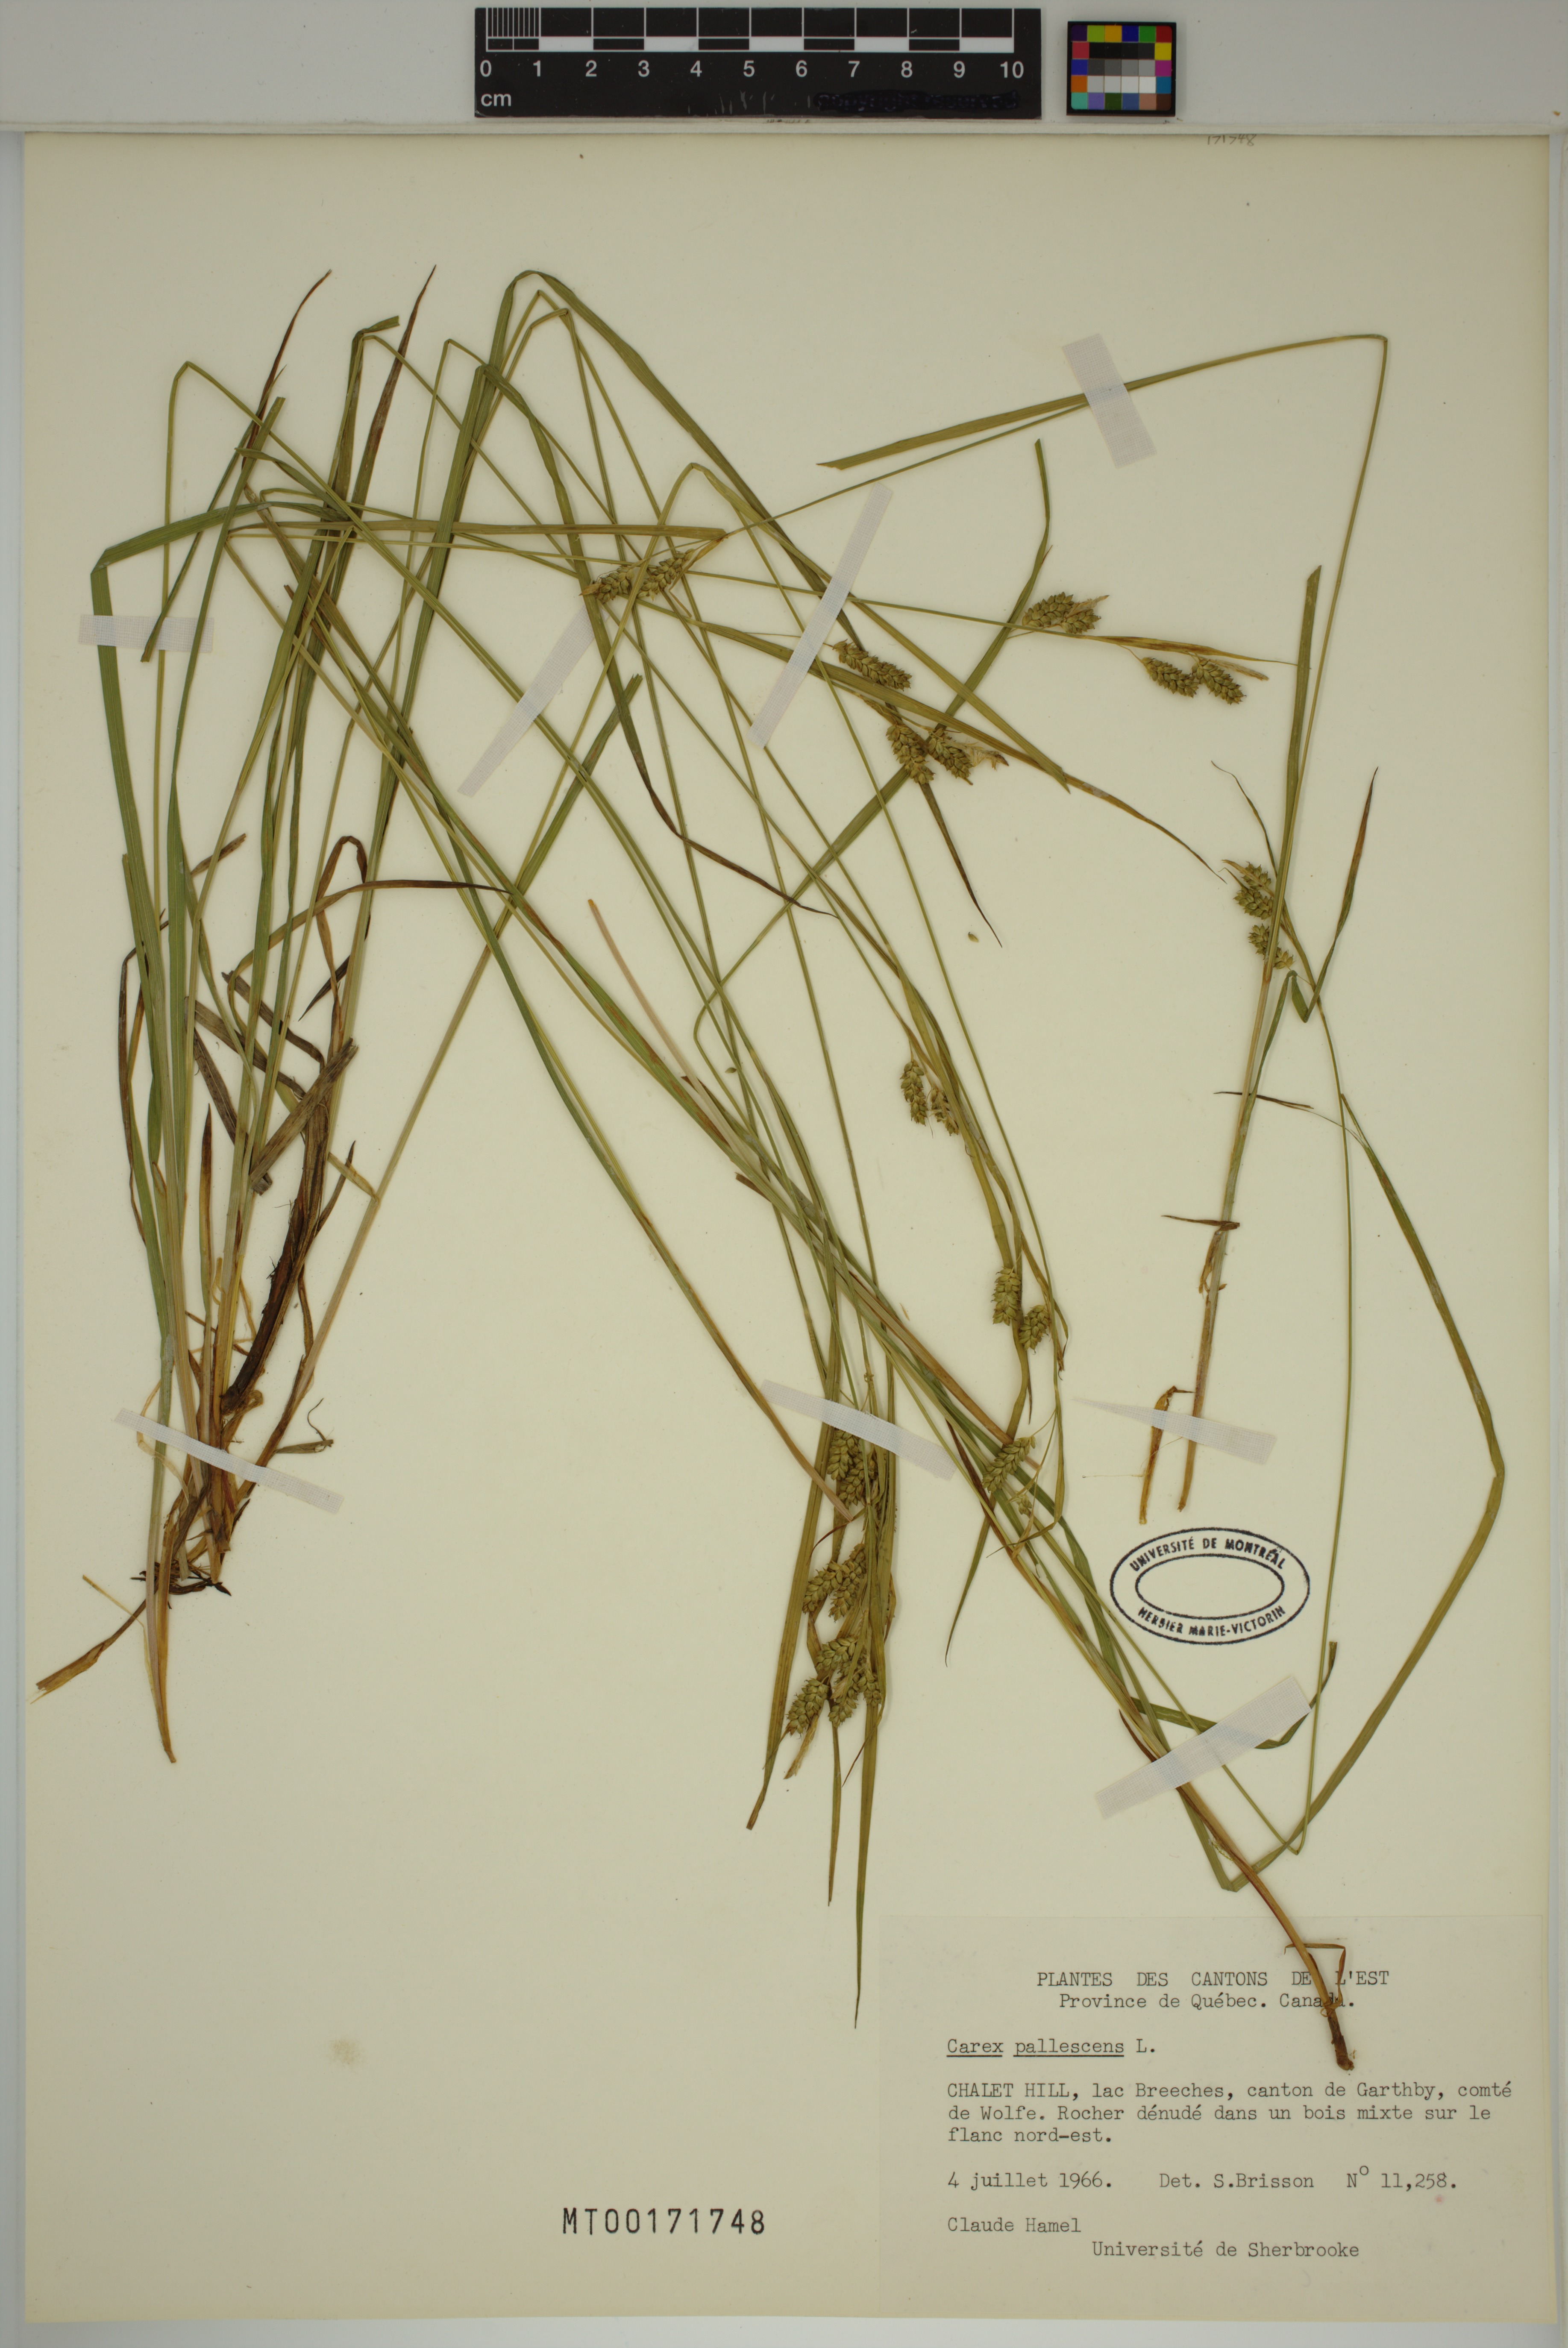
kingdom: Plantae
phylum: Tracheophyta
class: Liliopsida
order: Poales
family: Cyperaceae
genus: Carex
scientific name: Carex pallescens
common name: Pale sedge
